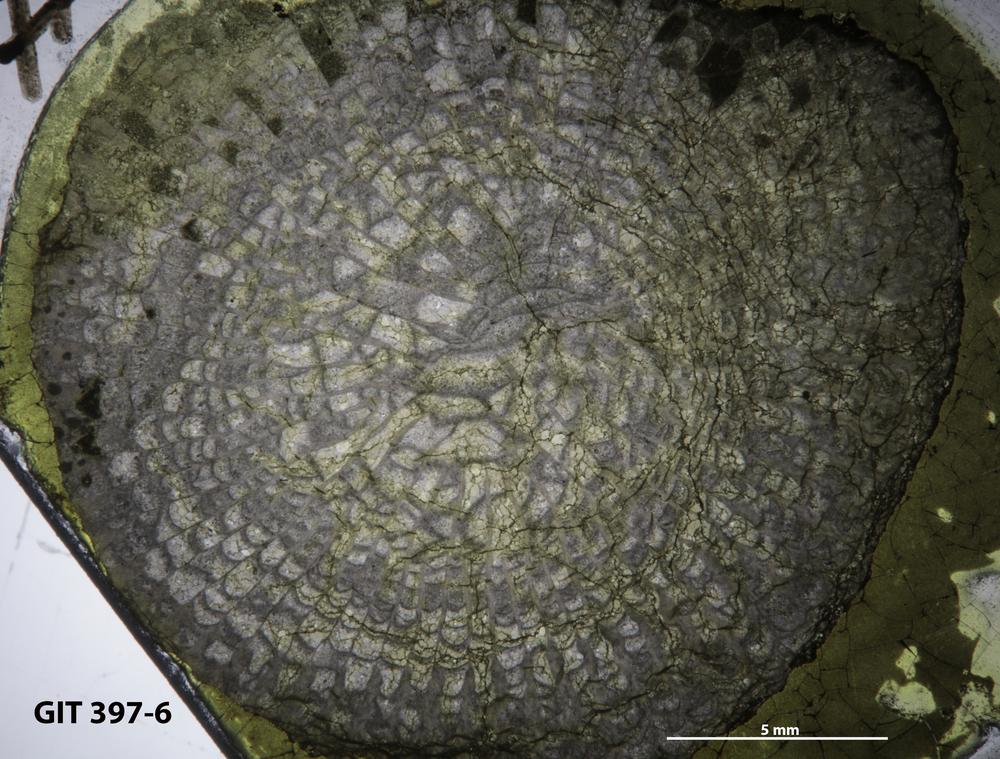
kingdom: Animalia
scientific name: Animalia
